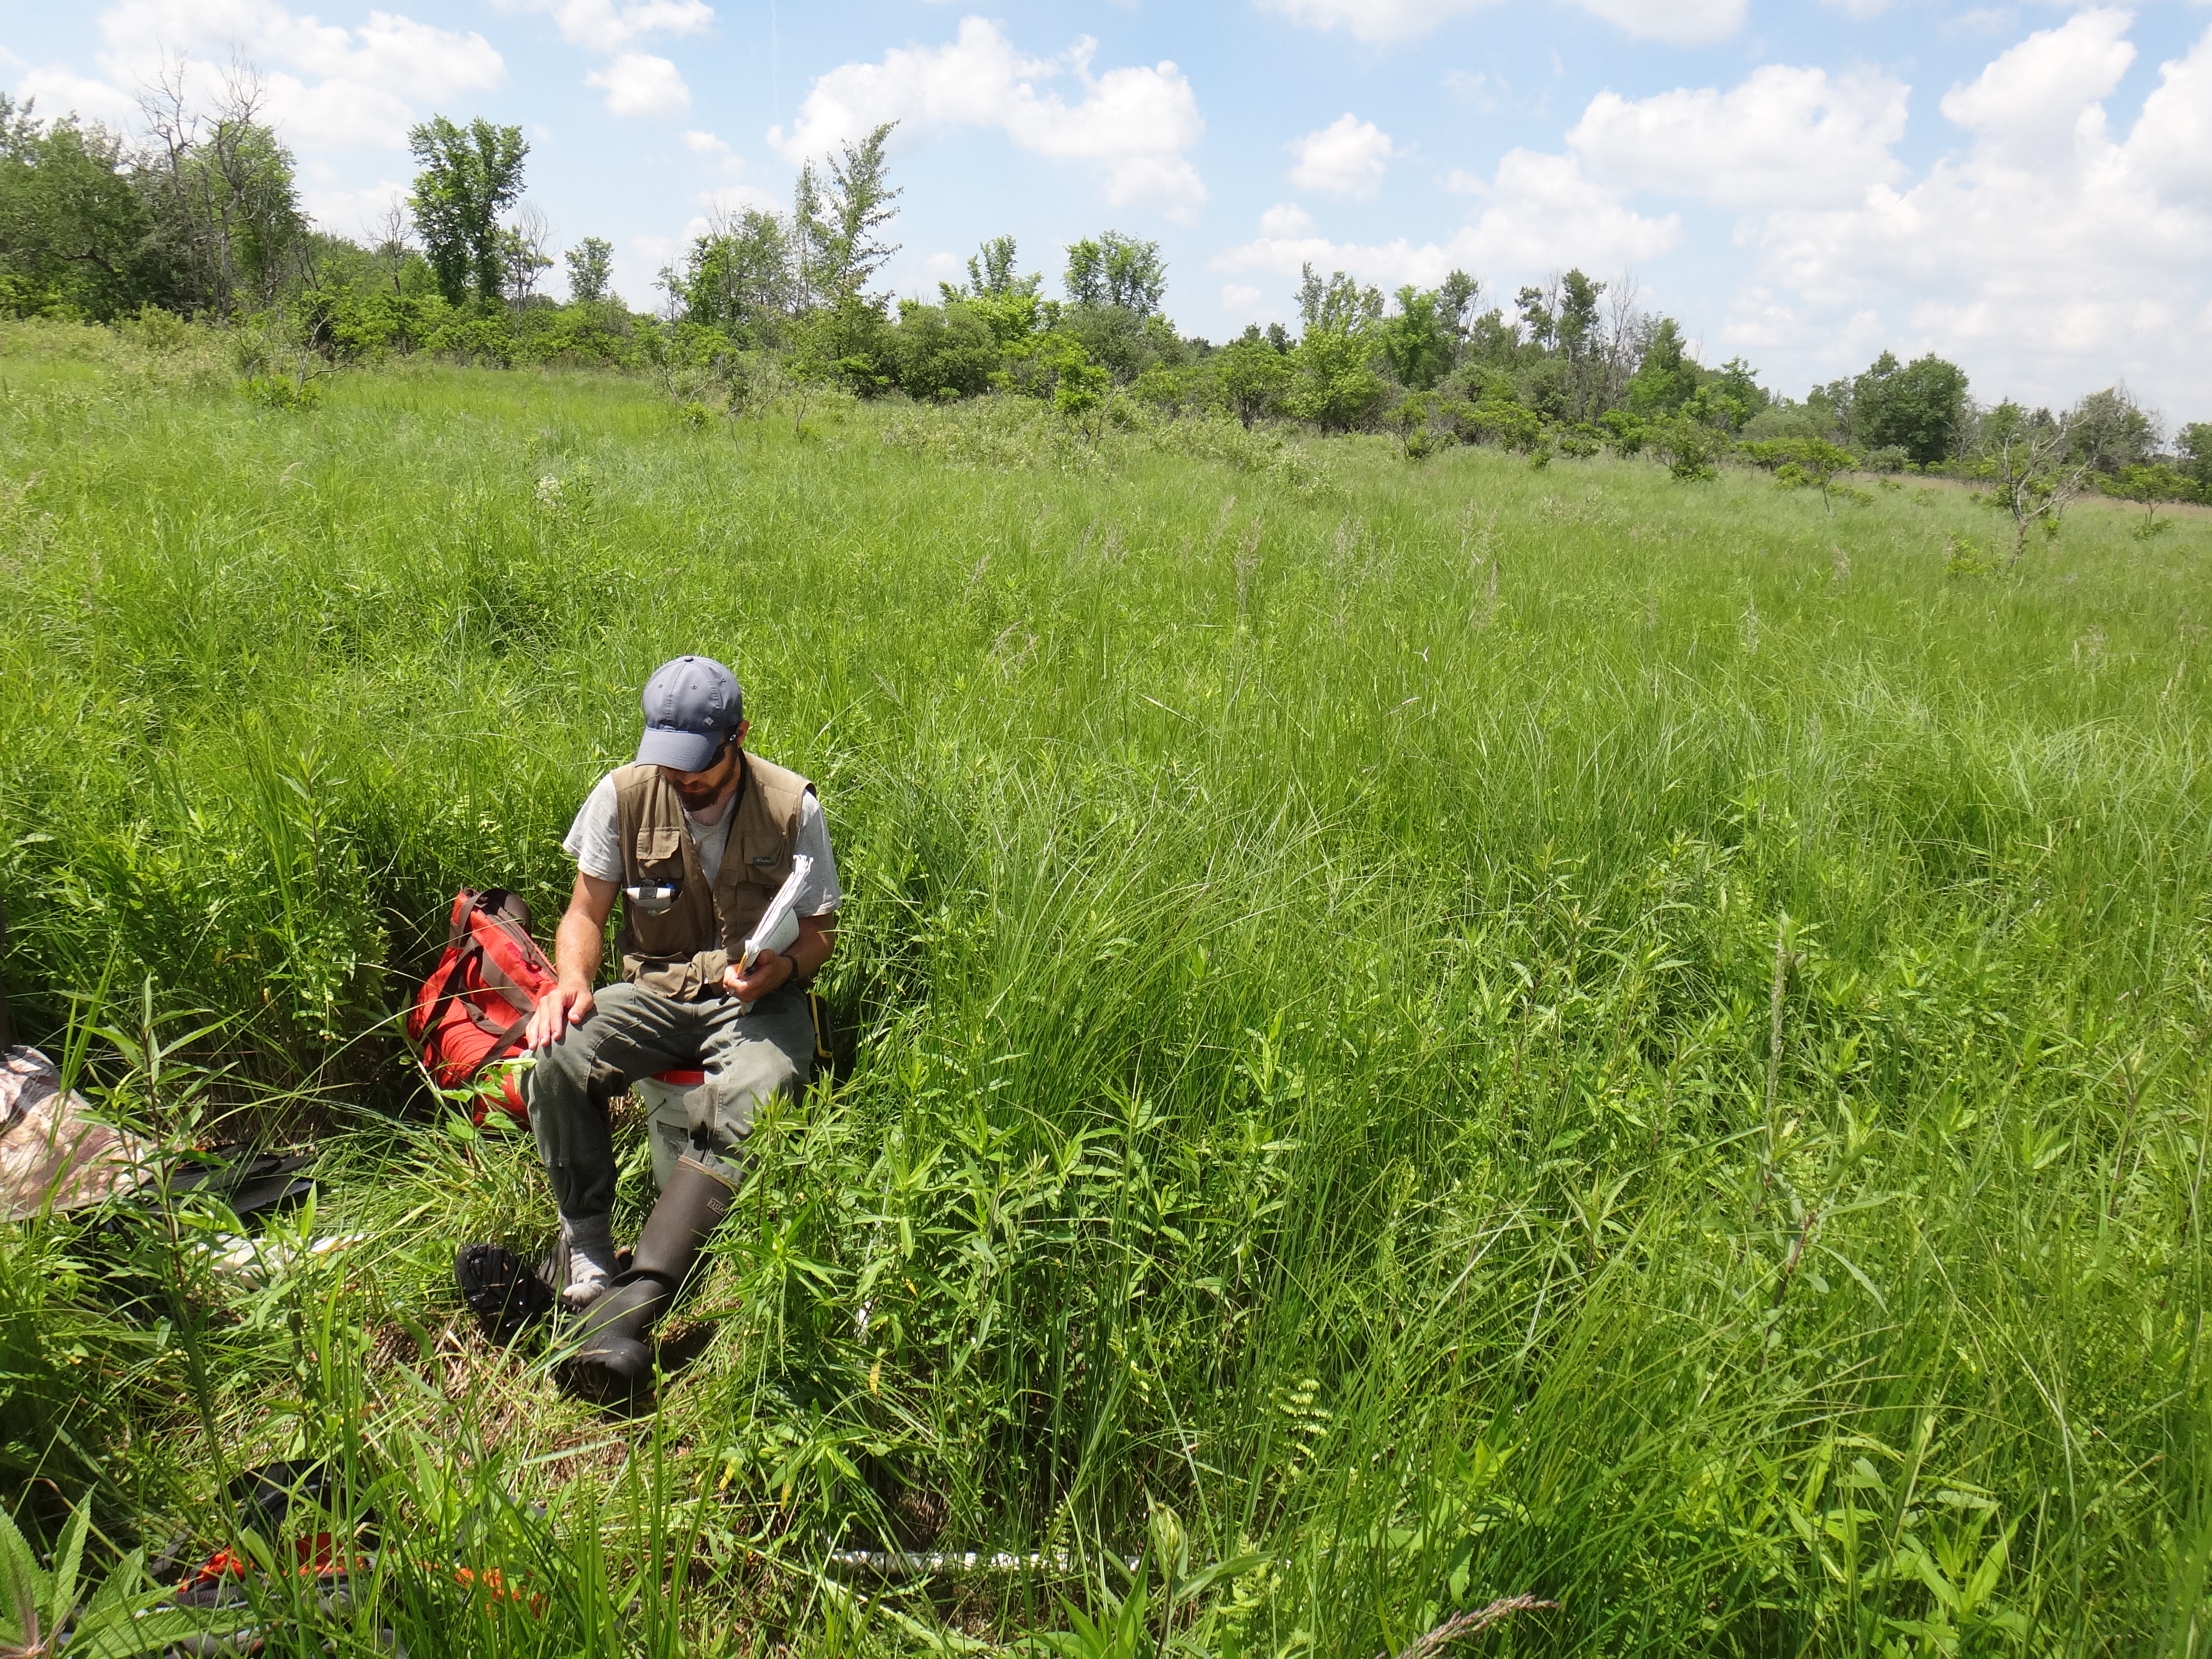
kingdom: Plantae
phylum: Tracheophyta
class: Magnoliopsida
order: Lamiales
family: Lamiaceae
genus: Pycnanthemum
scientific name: Pycnanthemum virginianum
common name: Virginia mountain-mint
